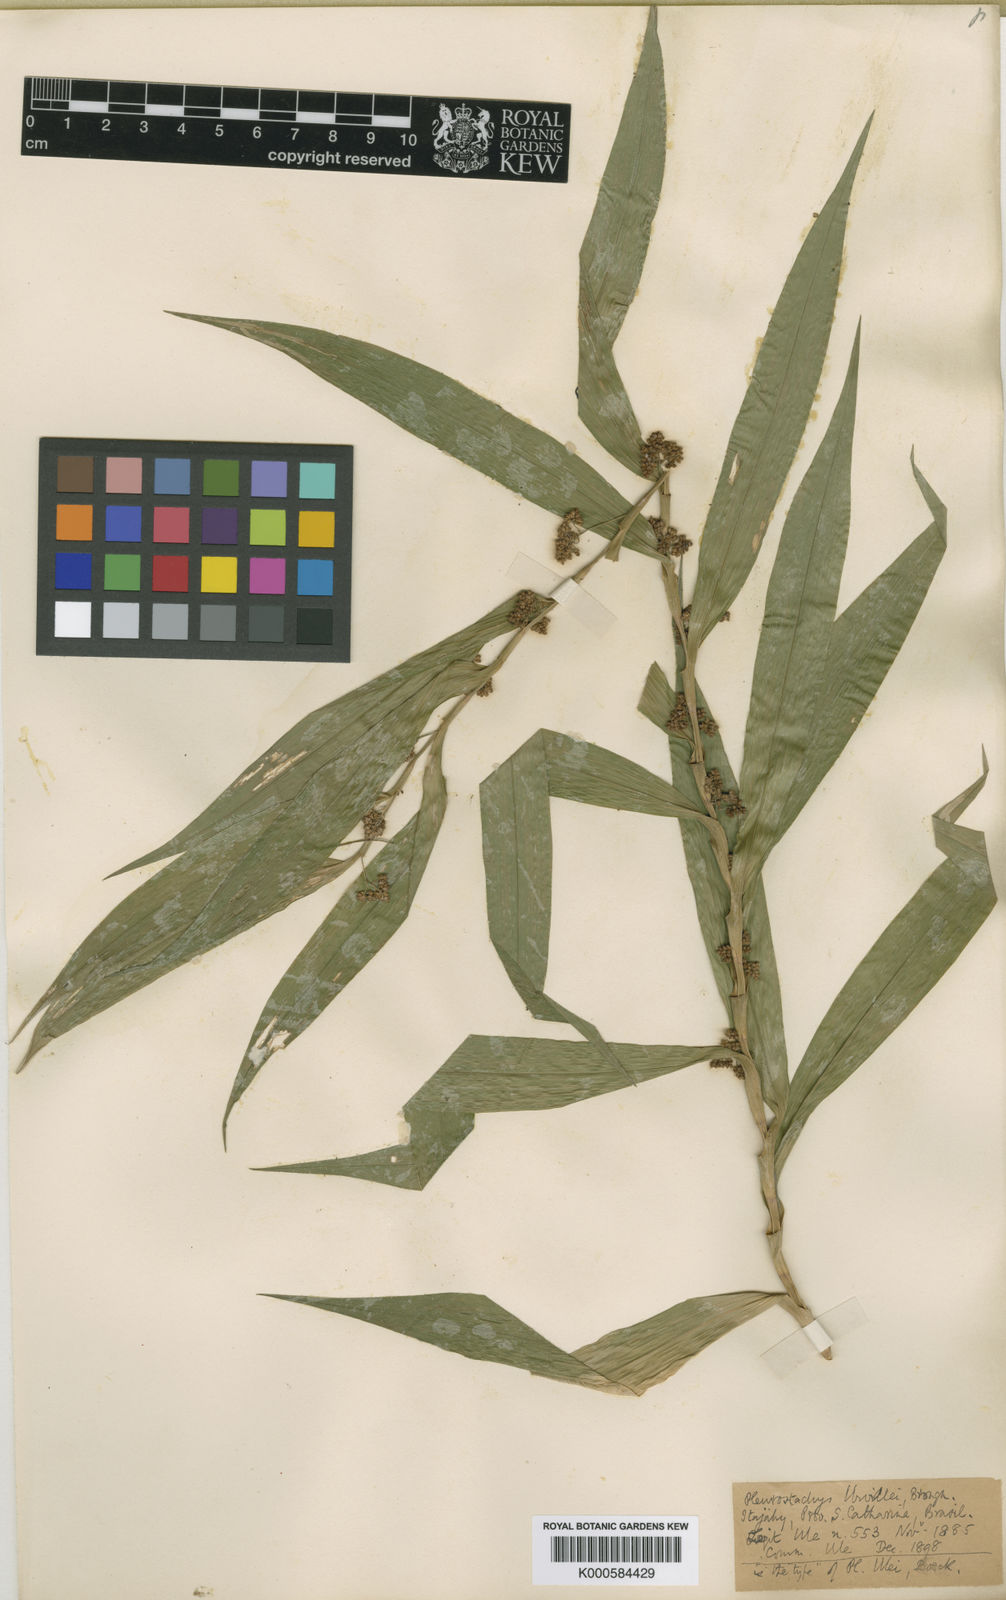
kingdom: Plantae
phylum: Tracheophyta
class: Liliopsida
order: Poales
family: Cyperaceae
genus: Rhynchospora
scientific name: Rhynchospora Pleurostachys ulei
